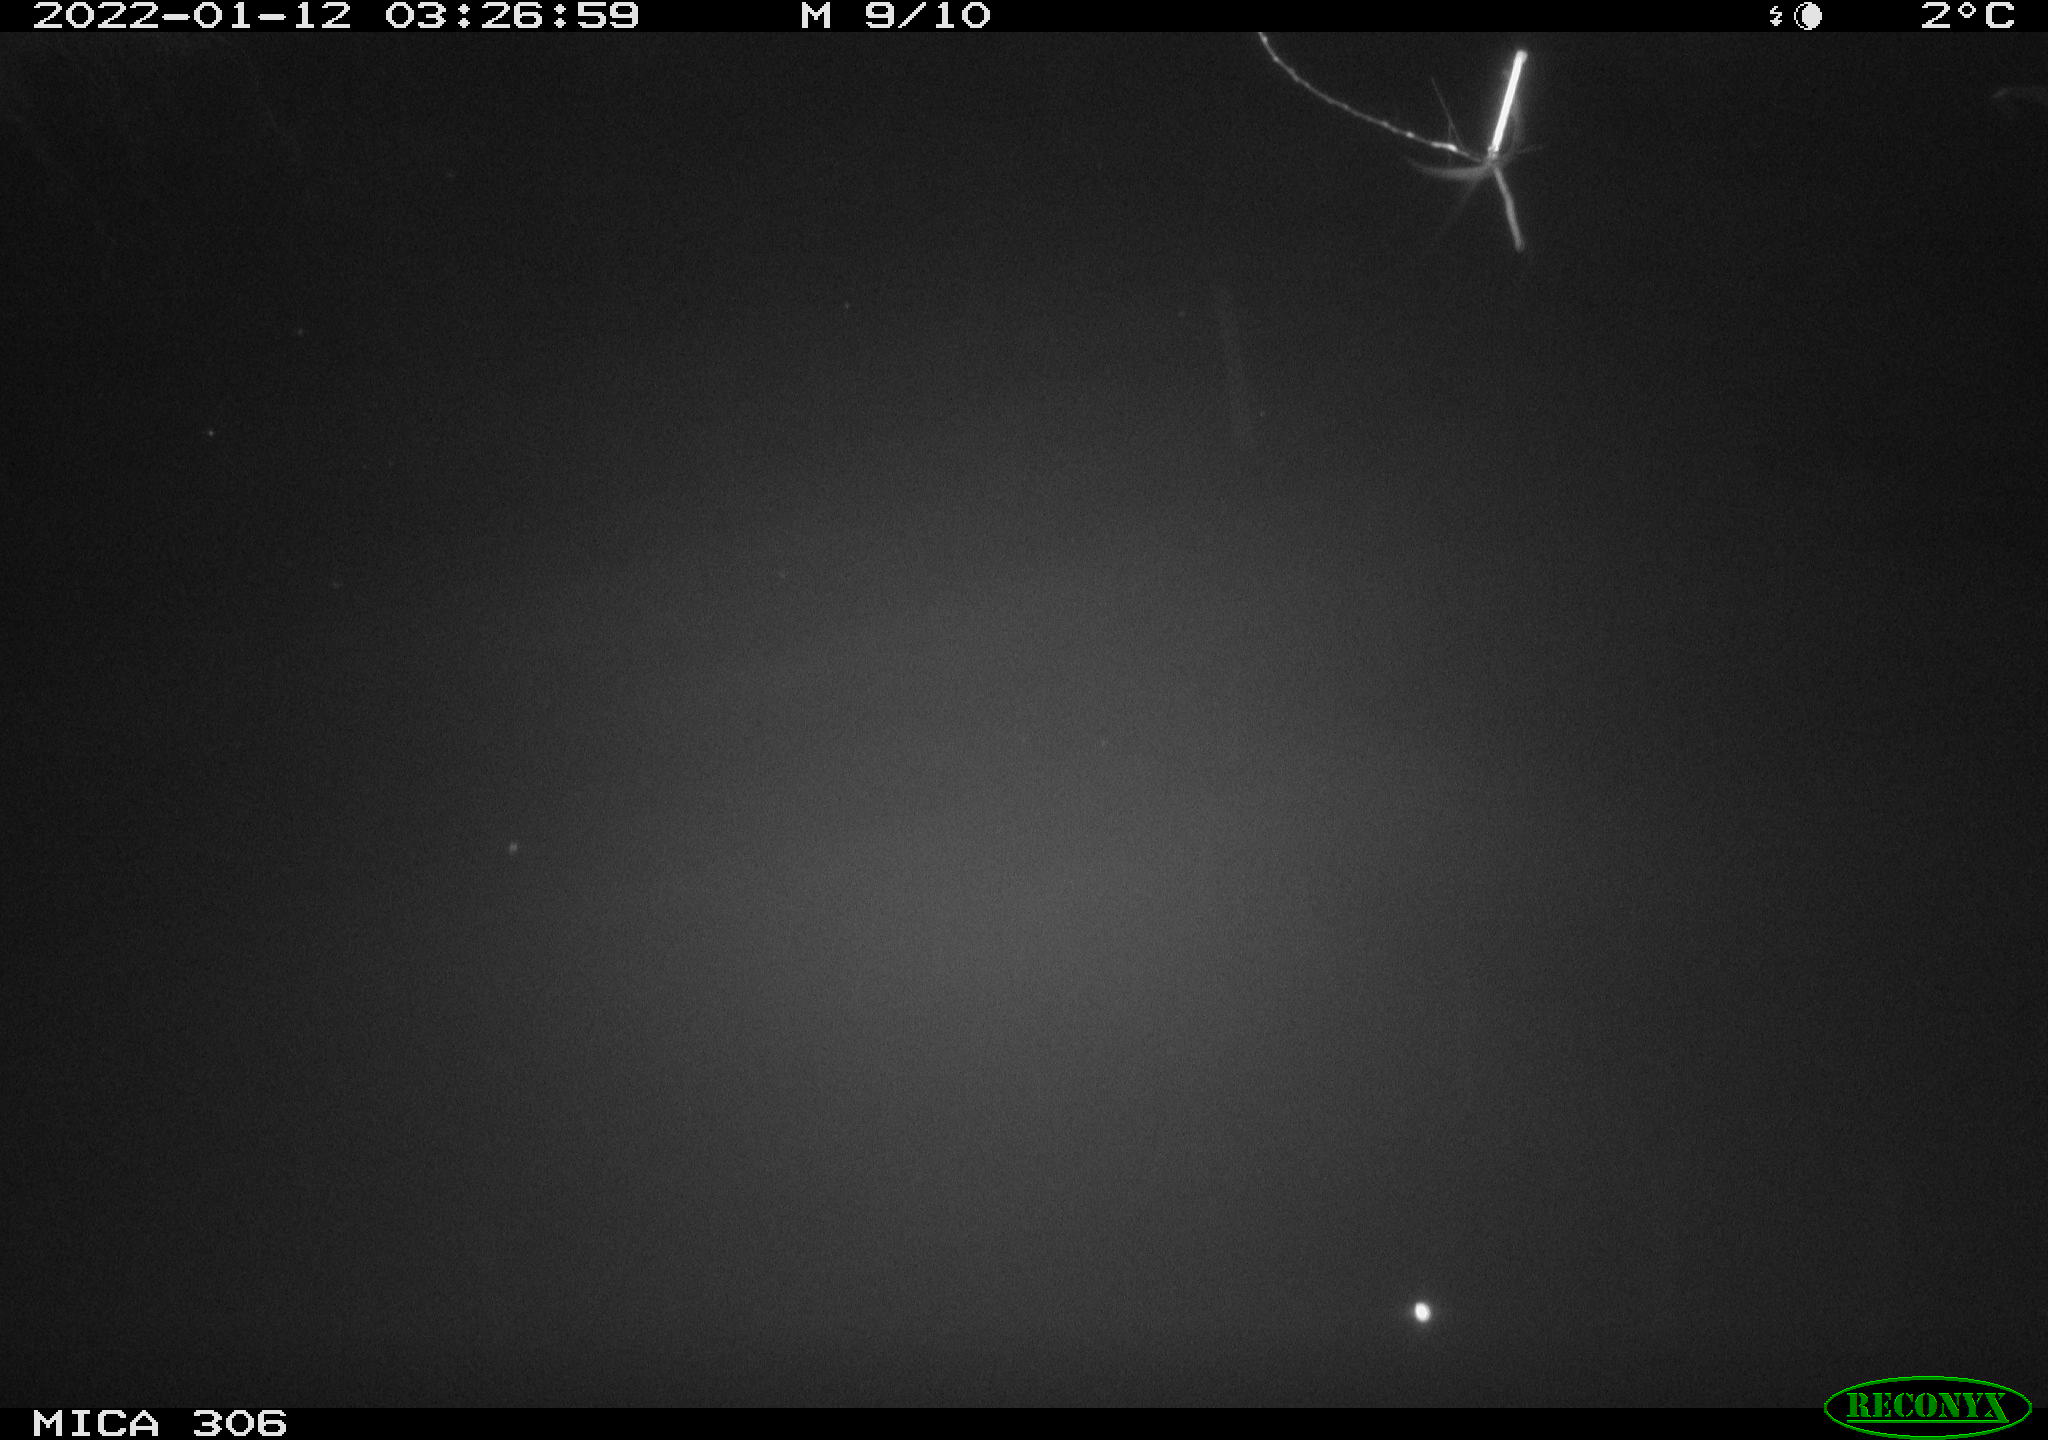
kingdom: Animalia
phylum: Chordata
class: Mammalia
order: Rodentia
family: Cricetidae
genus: Ondatra
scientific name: Ondatra zibethicus
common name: Muskrat
